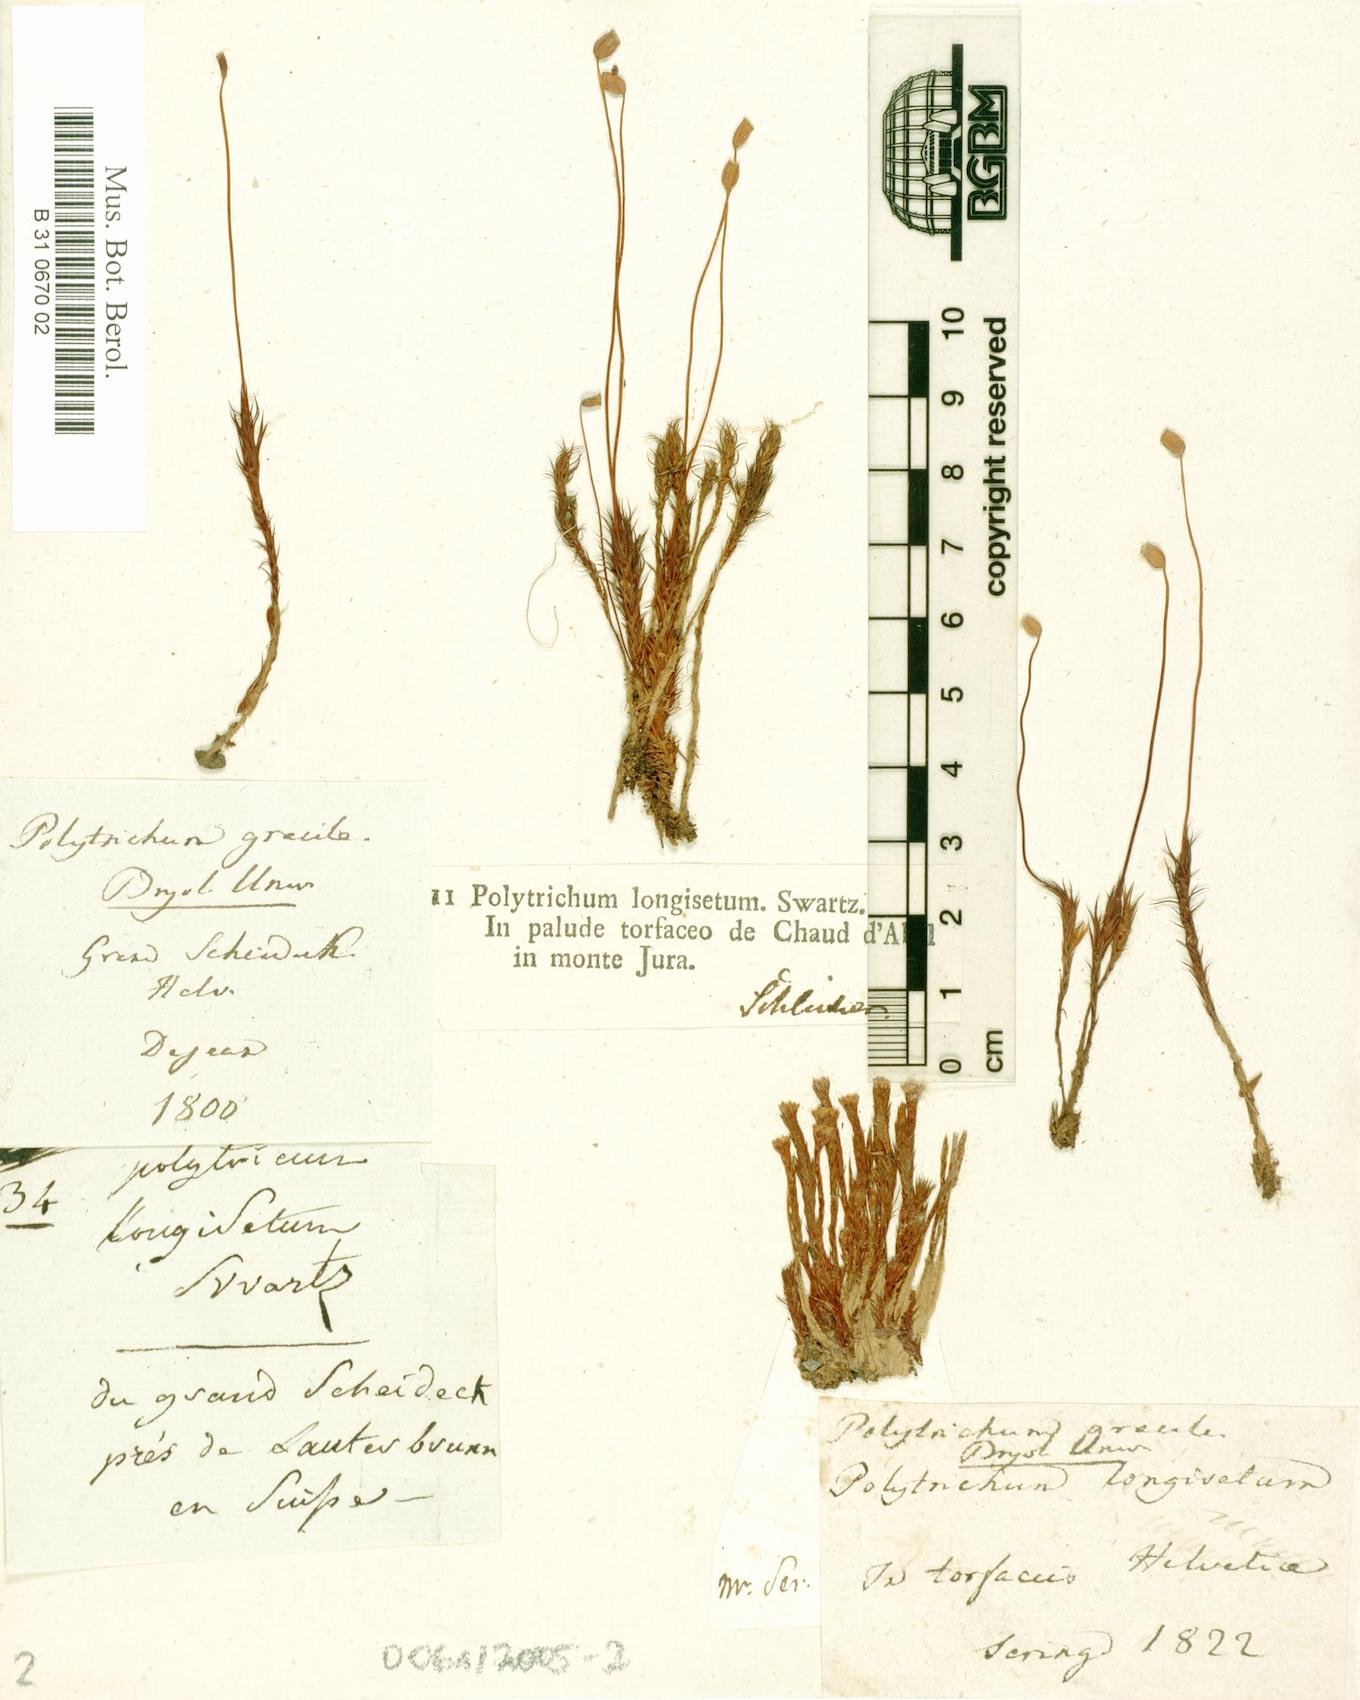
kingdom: Plantae
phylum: Bryophyta
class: Polytrichopsida
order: Polytrichales
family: Polytrichaceae
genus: Polytrichum
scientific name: Polytrichum longisetum
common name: Long-stalked haircap moss
